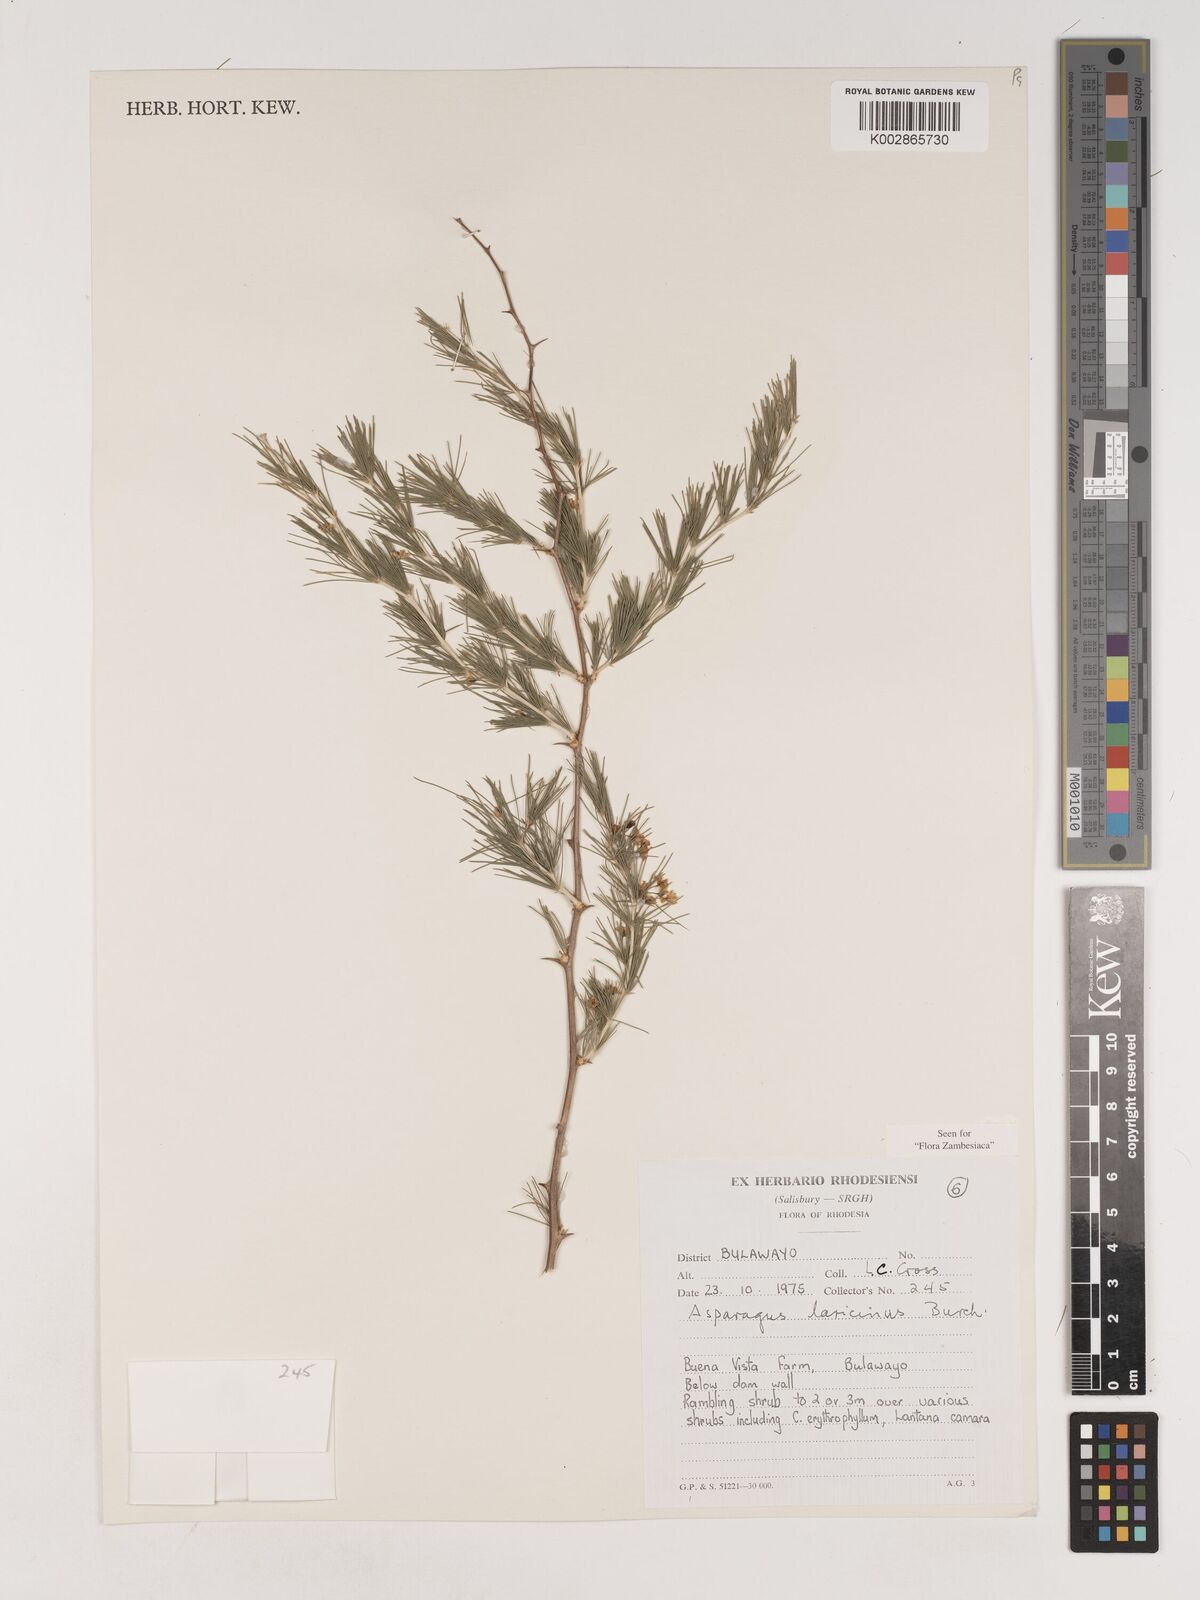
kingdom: Plantae
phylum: Tracheophyta
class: Liliopsida
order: Asparagales
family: Asparagaceae
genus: Asparagus
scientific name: Asparagus laricinus
